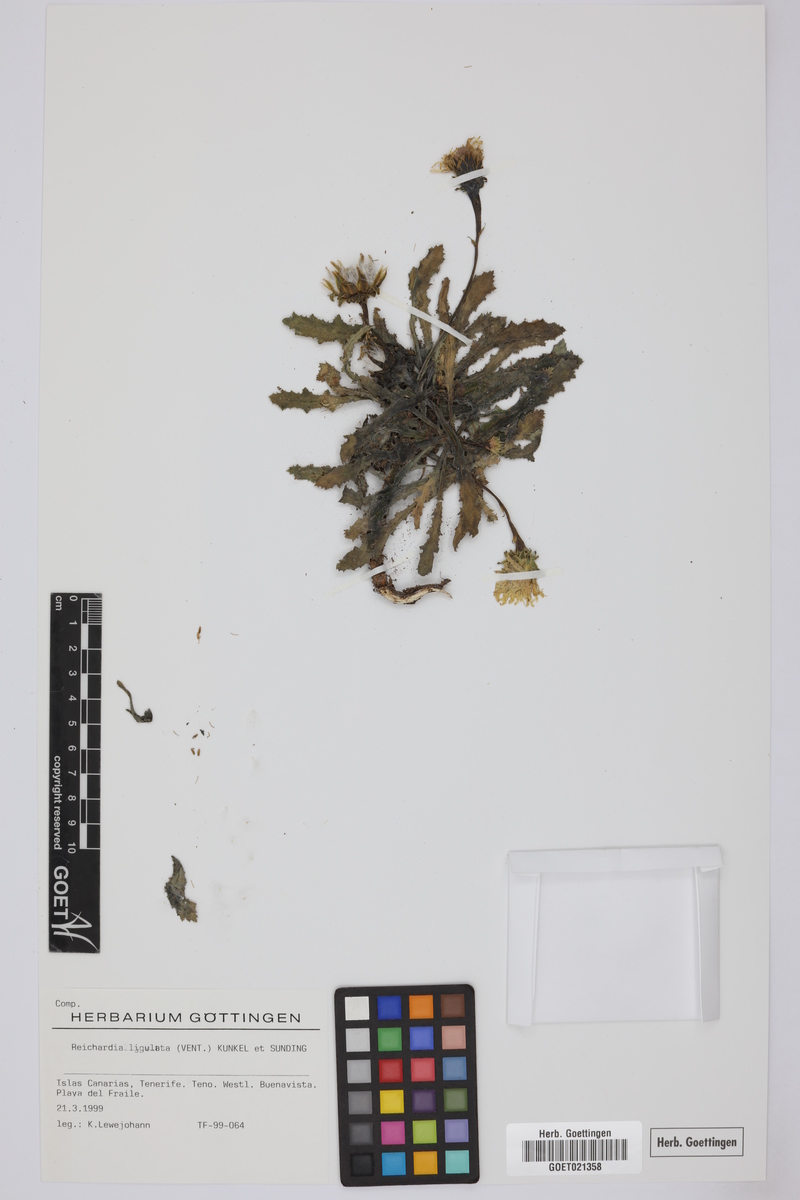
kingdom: Plantae
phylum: Tracheophyta
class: Magnoliopsida
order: Asterales
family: Asteraceae
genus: Reichardia
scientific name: Reichardia ligulata
